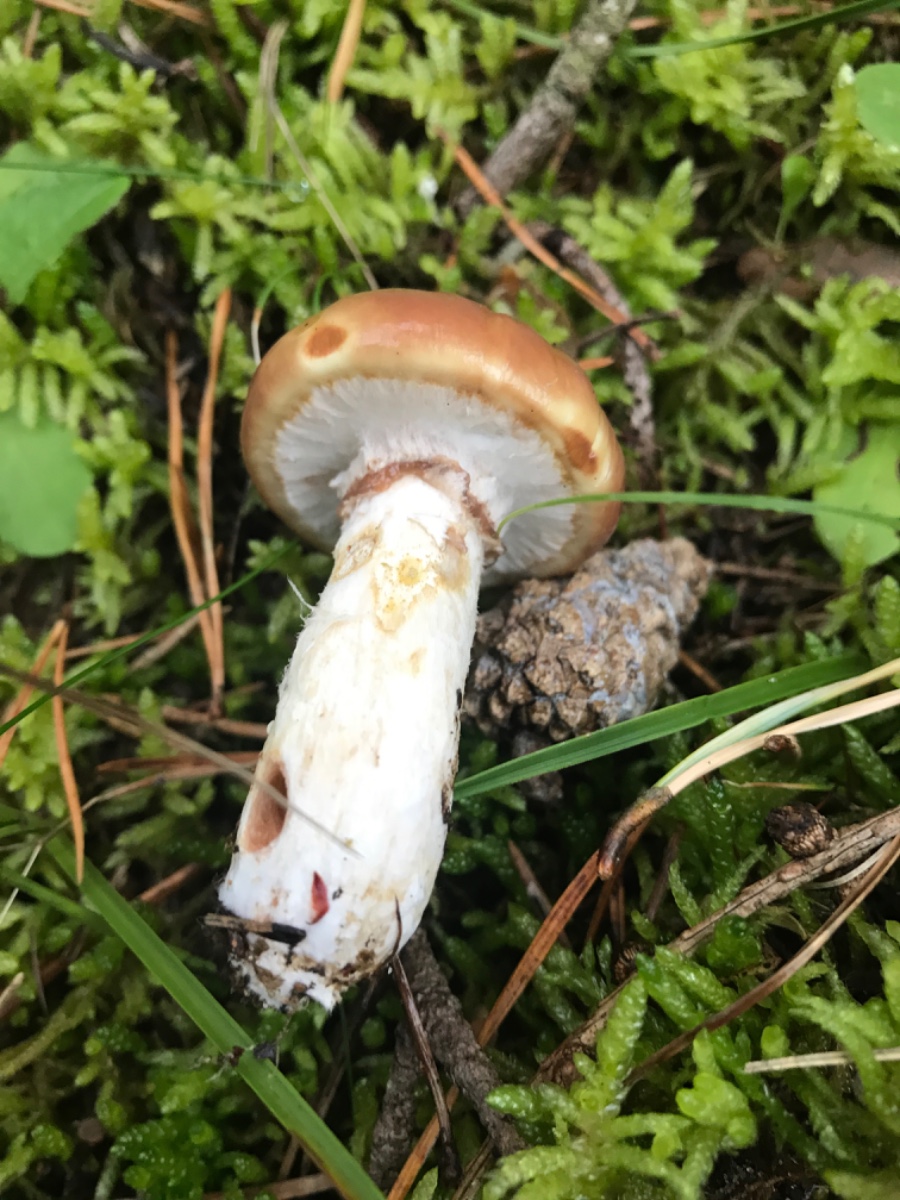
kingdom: Fungi
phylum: Basidiomycota
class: Agaricomycetes
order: Boletales
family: Suillaceae
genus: Suillus
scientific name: Suillus luteus
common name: brungul slimrørhat
